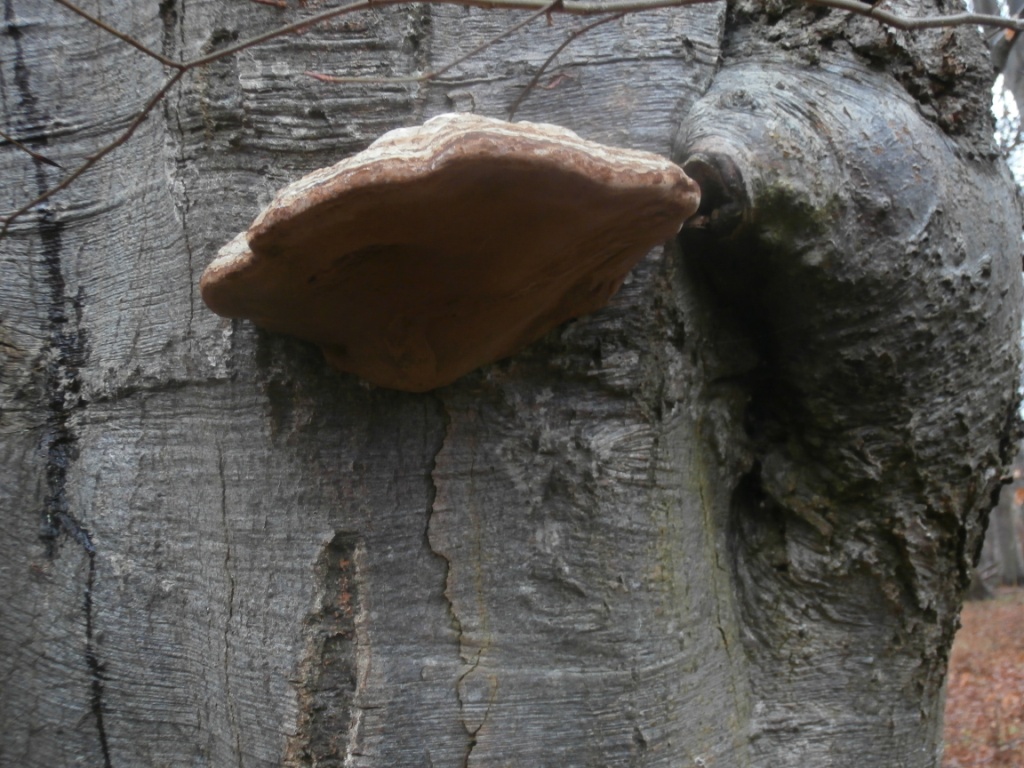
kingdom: Fungi
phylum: Basidiomycota
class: Agaricomycetes
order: Polyporales
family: Polyporaceae
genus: Fomes
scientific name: Fomes fomentarius
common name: tøndersvamp
